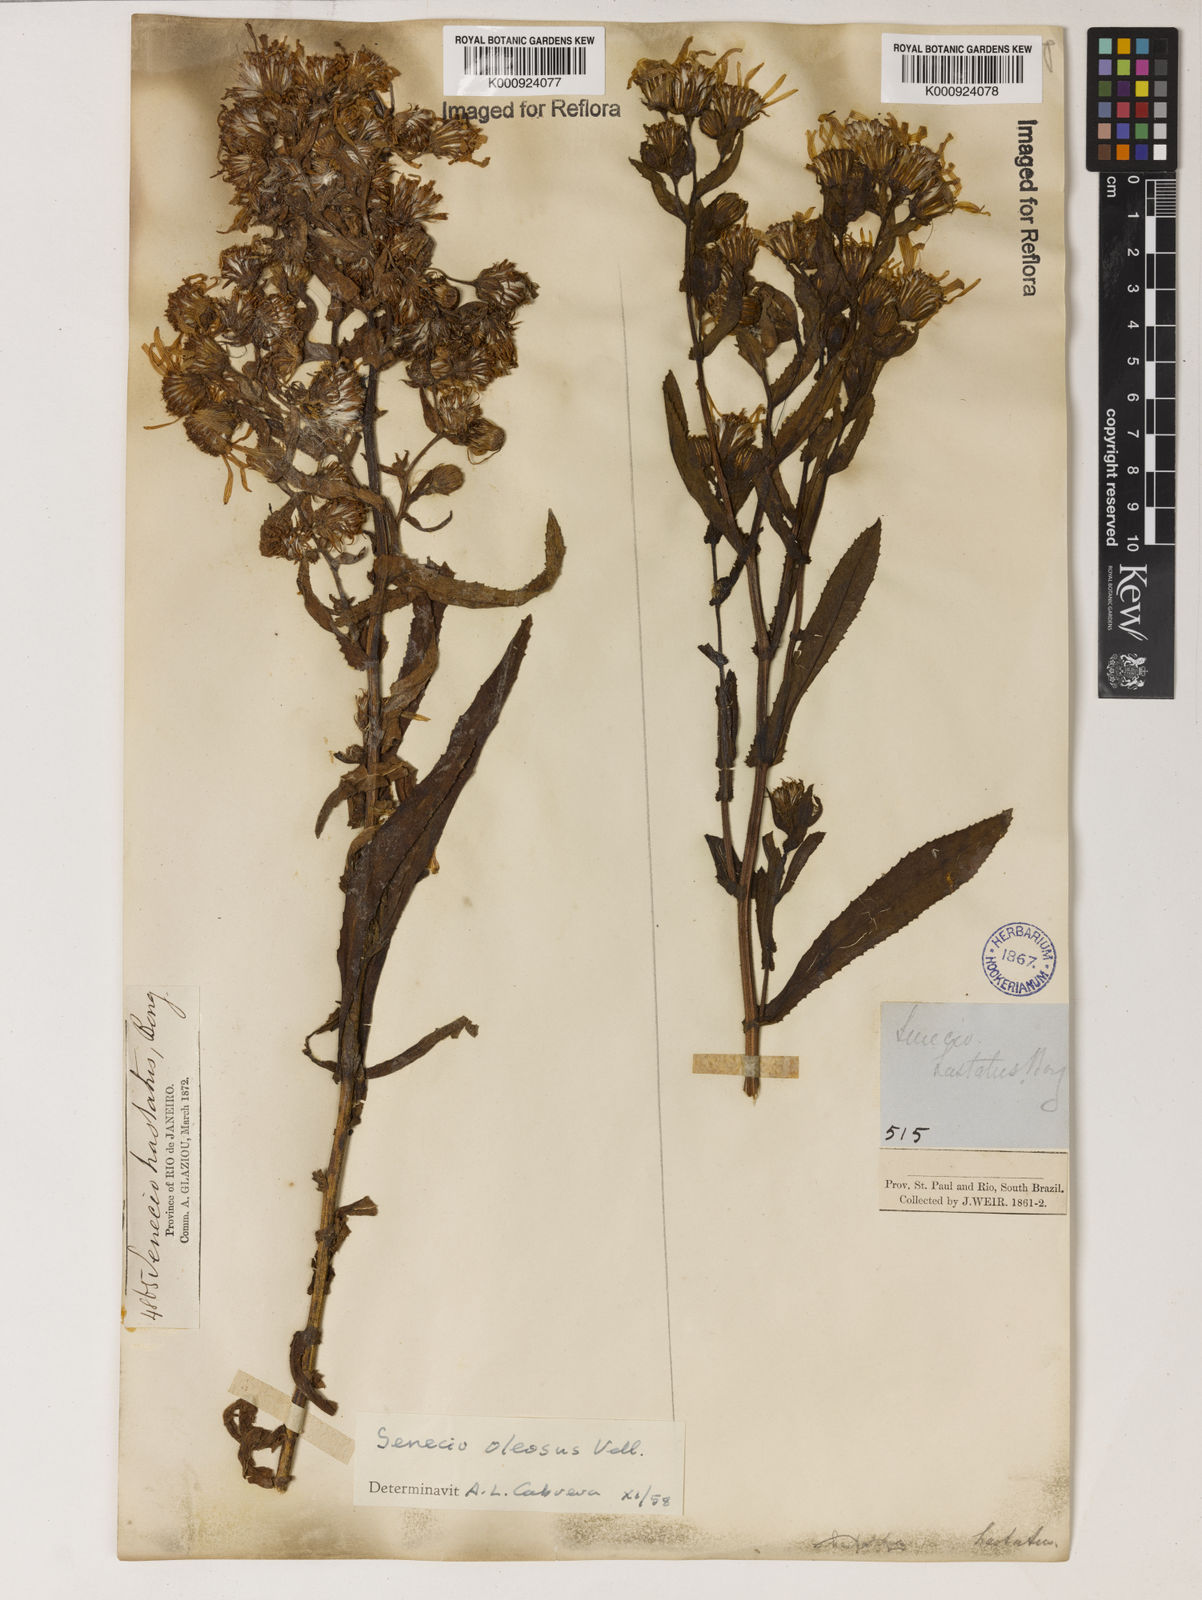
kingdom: Plantae
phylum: Tracheophyta
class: Magnoliopsida
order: Asterales
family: Asteraceae
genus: Senecio
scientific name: Senecio oleosus
